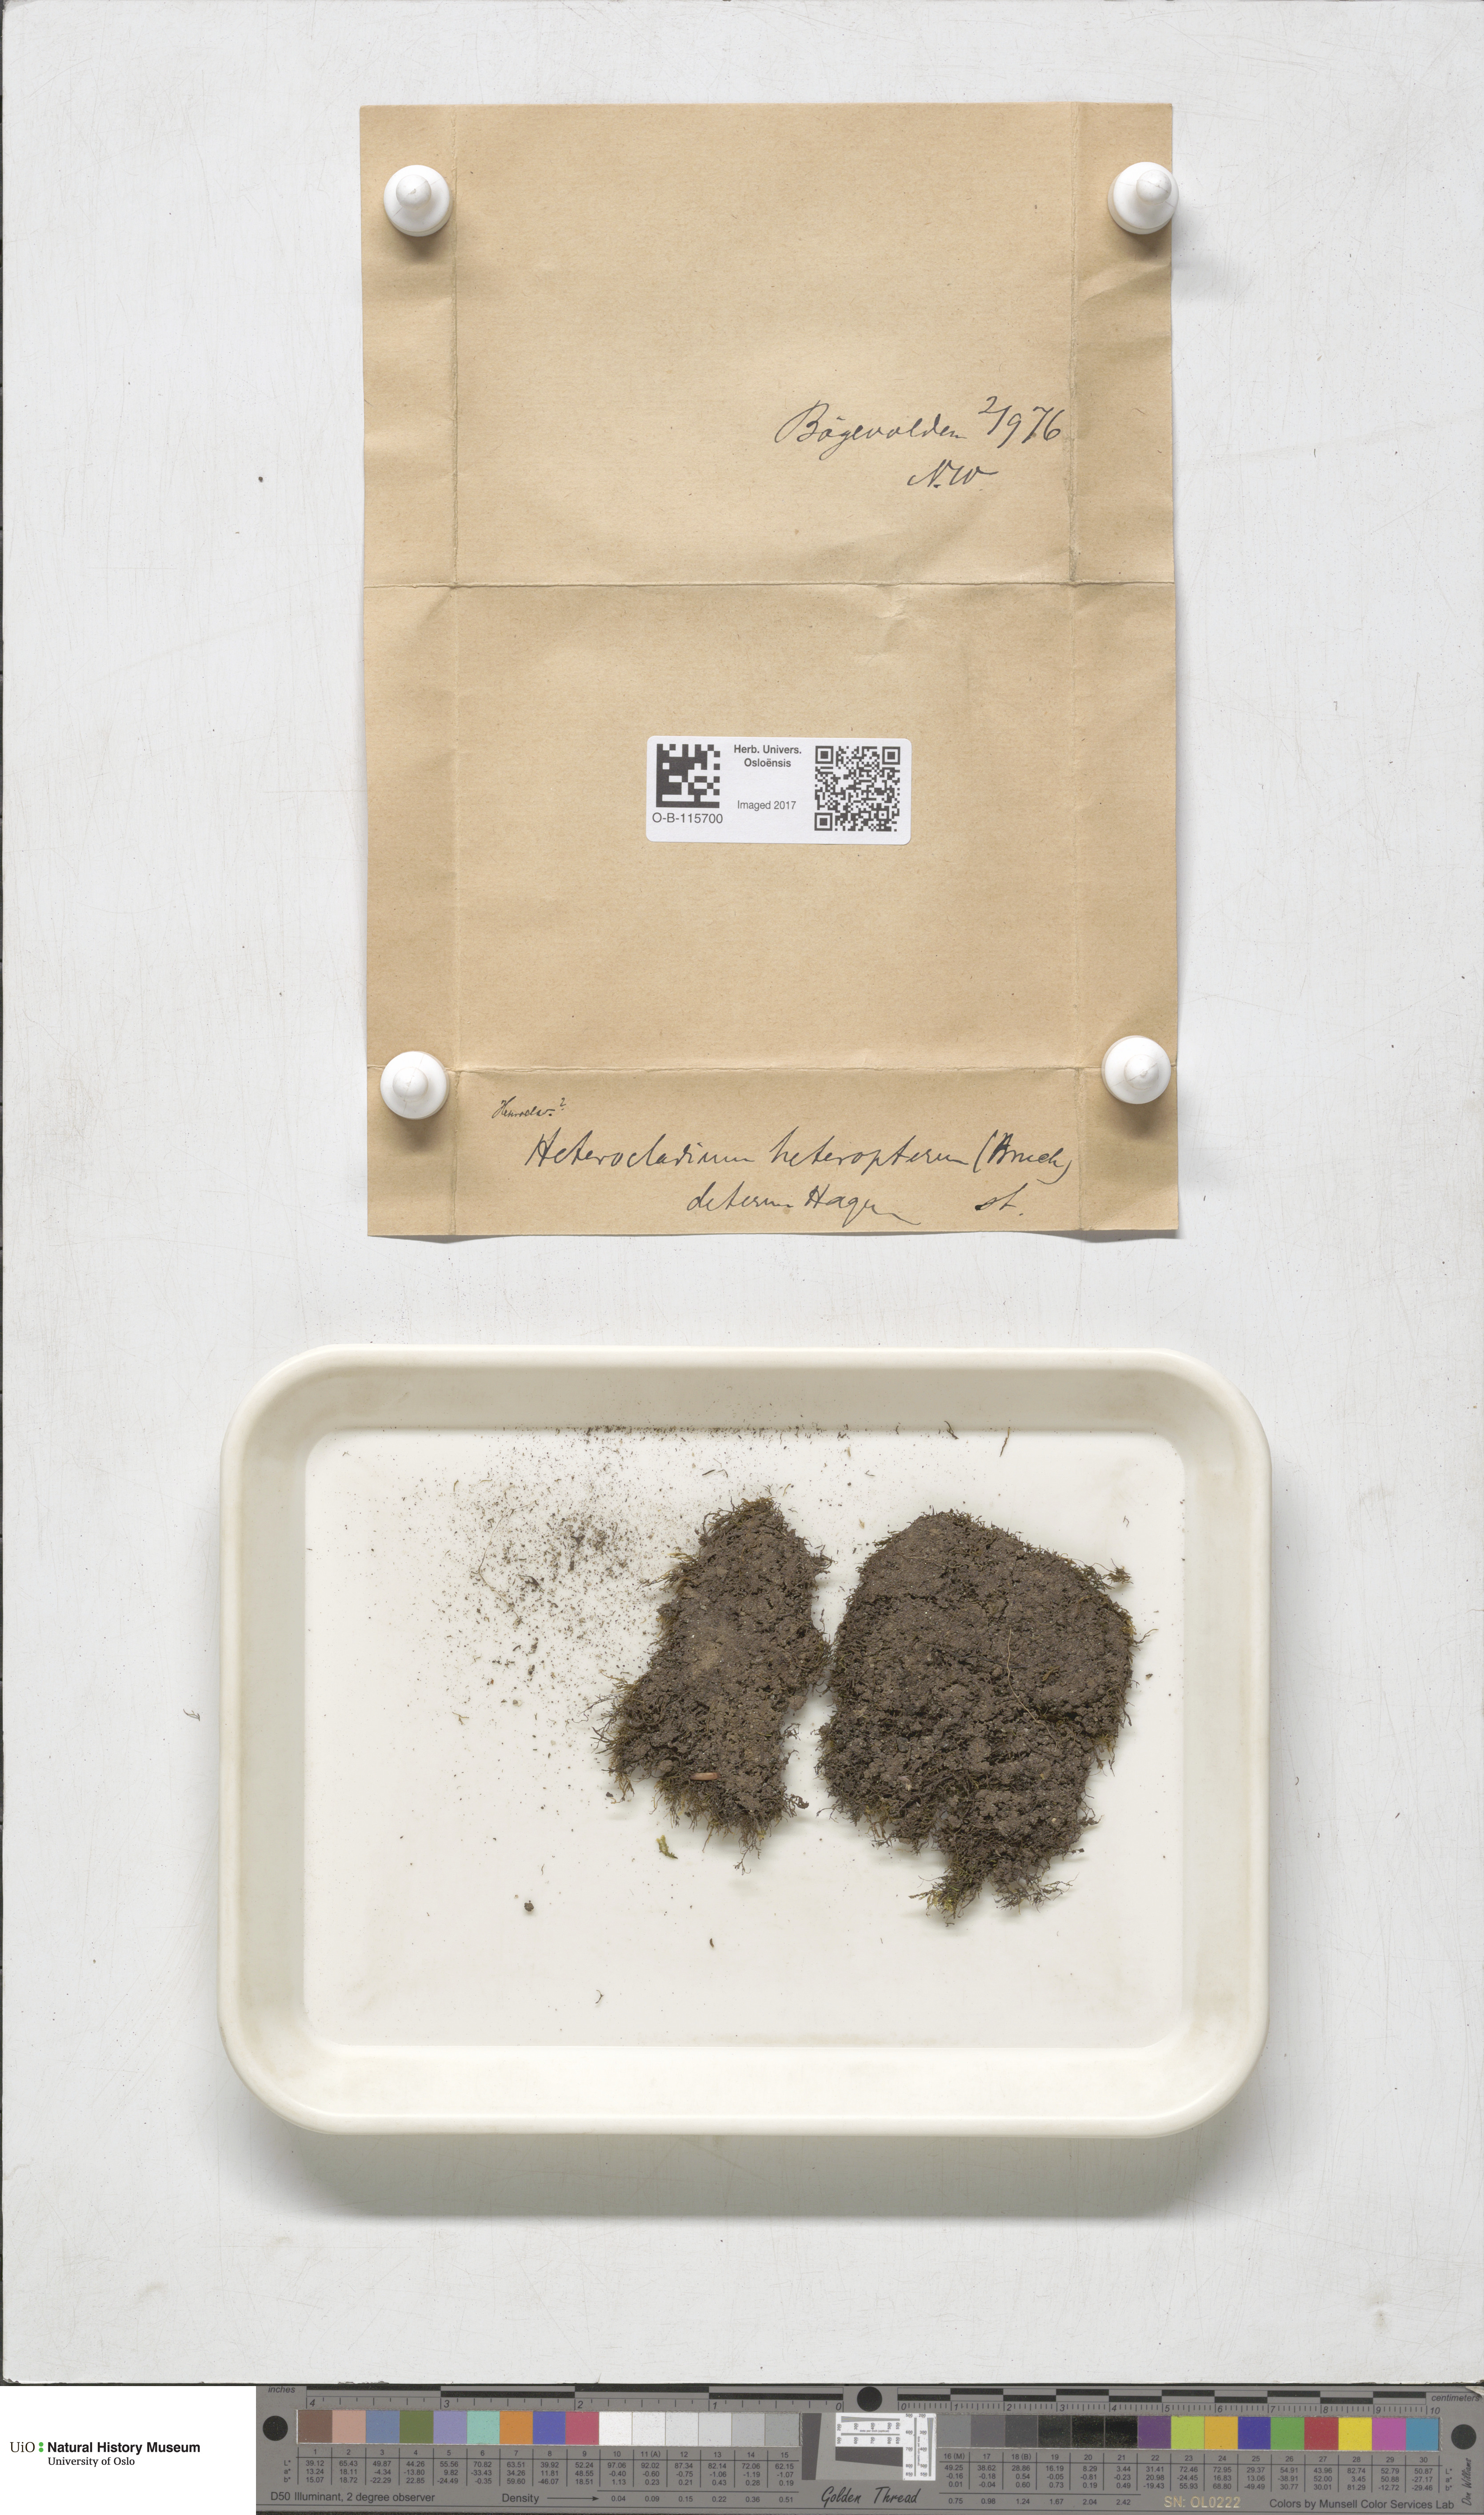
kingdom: Plantae
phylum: Bryophyta
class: Bryopsida
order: Hypnales
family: Lembophyllaceae
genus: Heterocladium
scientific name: Heterocladium heteropterum
